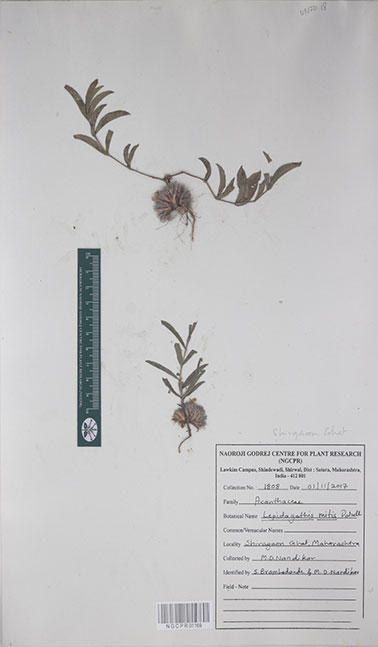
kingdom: Plantae
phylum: Tracheophyta
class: Magnoliopsida
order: Lamiales
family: Acanthaceae
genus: Lepidagathis
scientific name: Lepidagathis mitis
